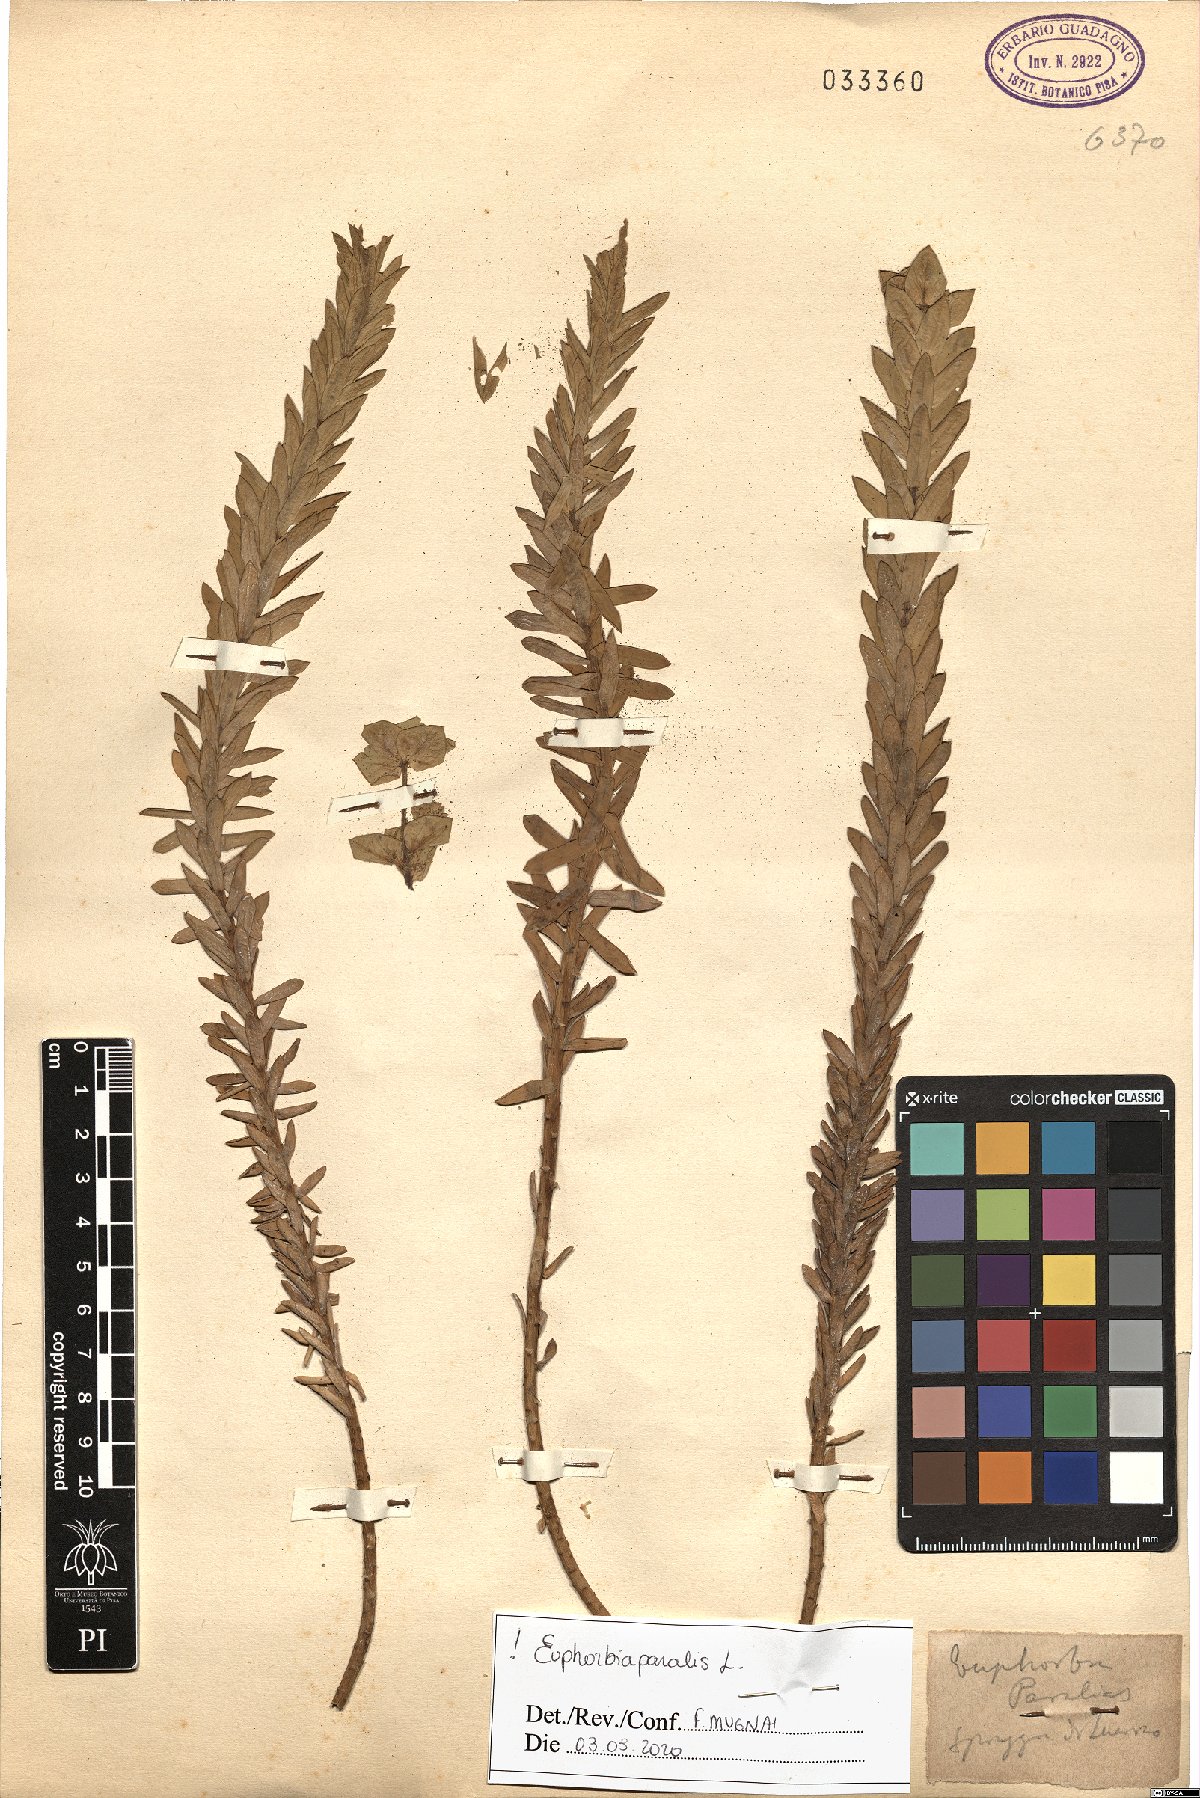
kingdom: Plantae
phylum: Tracheophyta
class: Magnoliopsida
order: Malpighiales
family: Euphorbiaceae
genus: Euphorbia
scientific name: Euphorbia paralias
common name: Sea spurge
